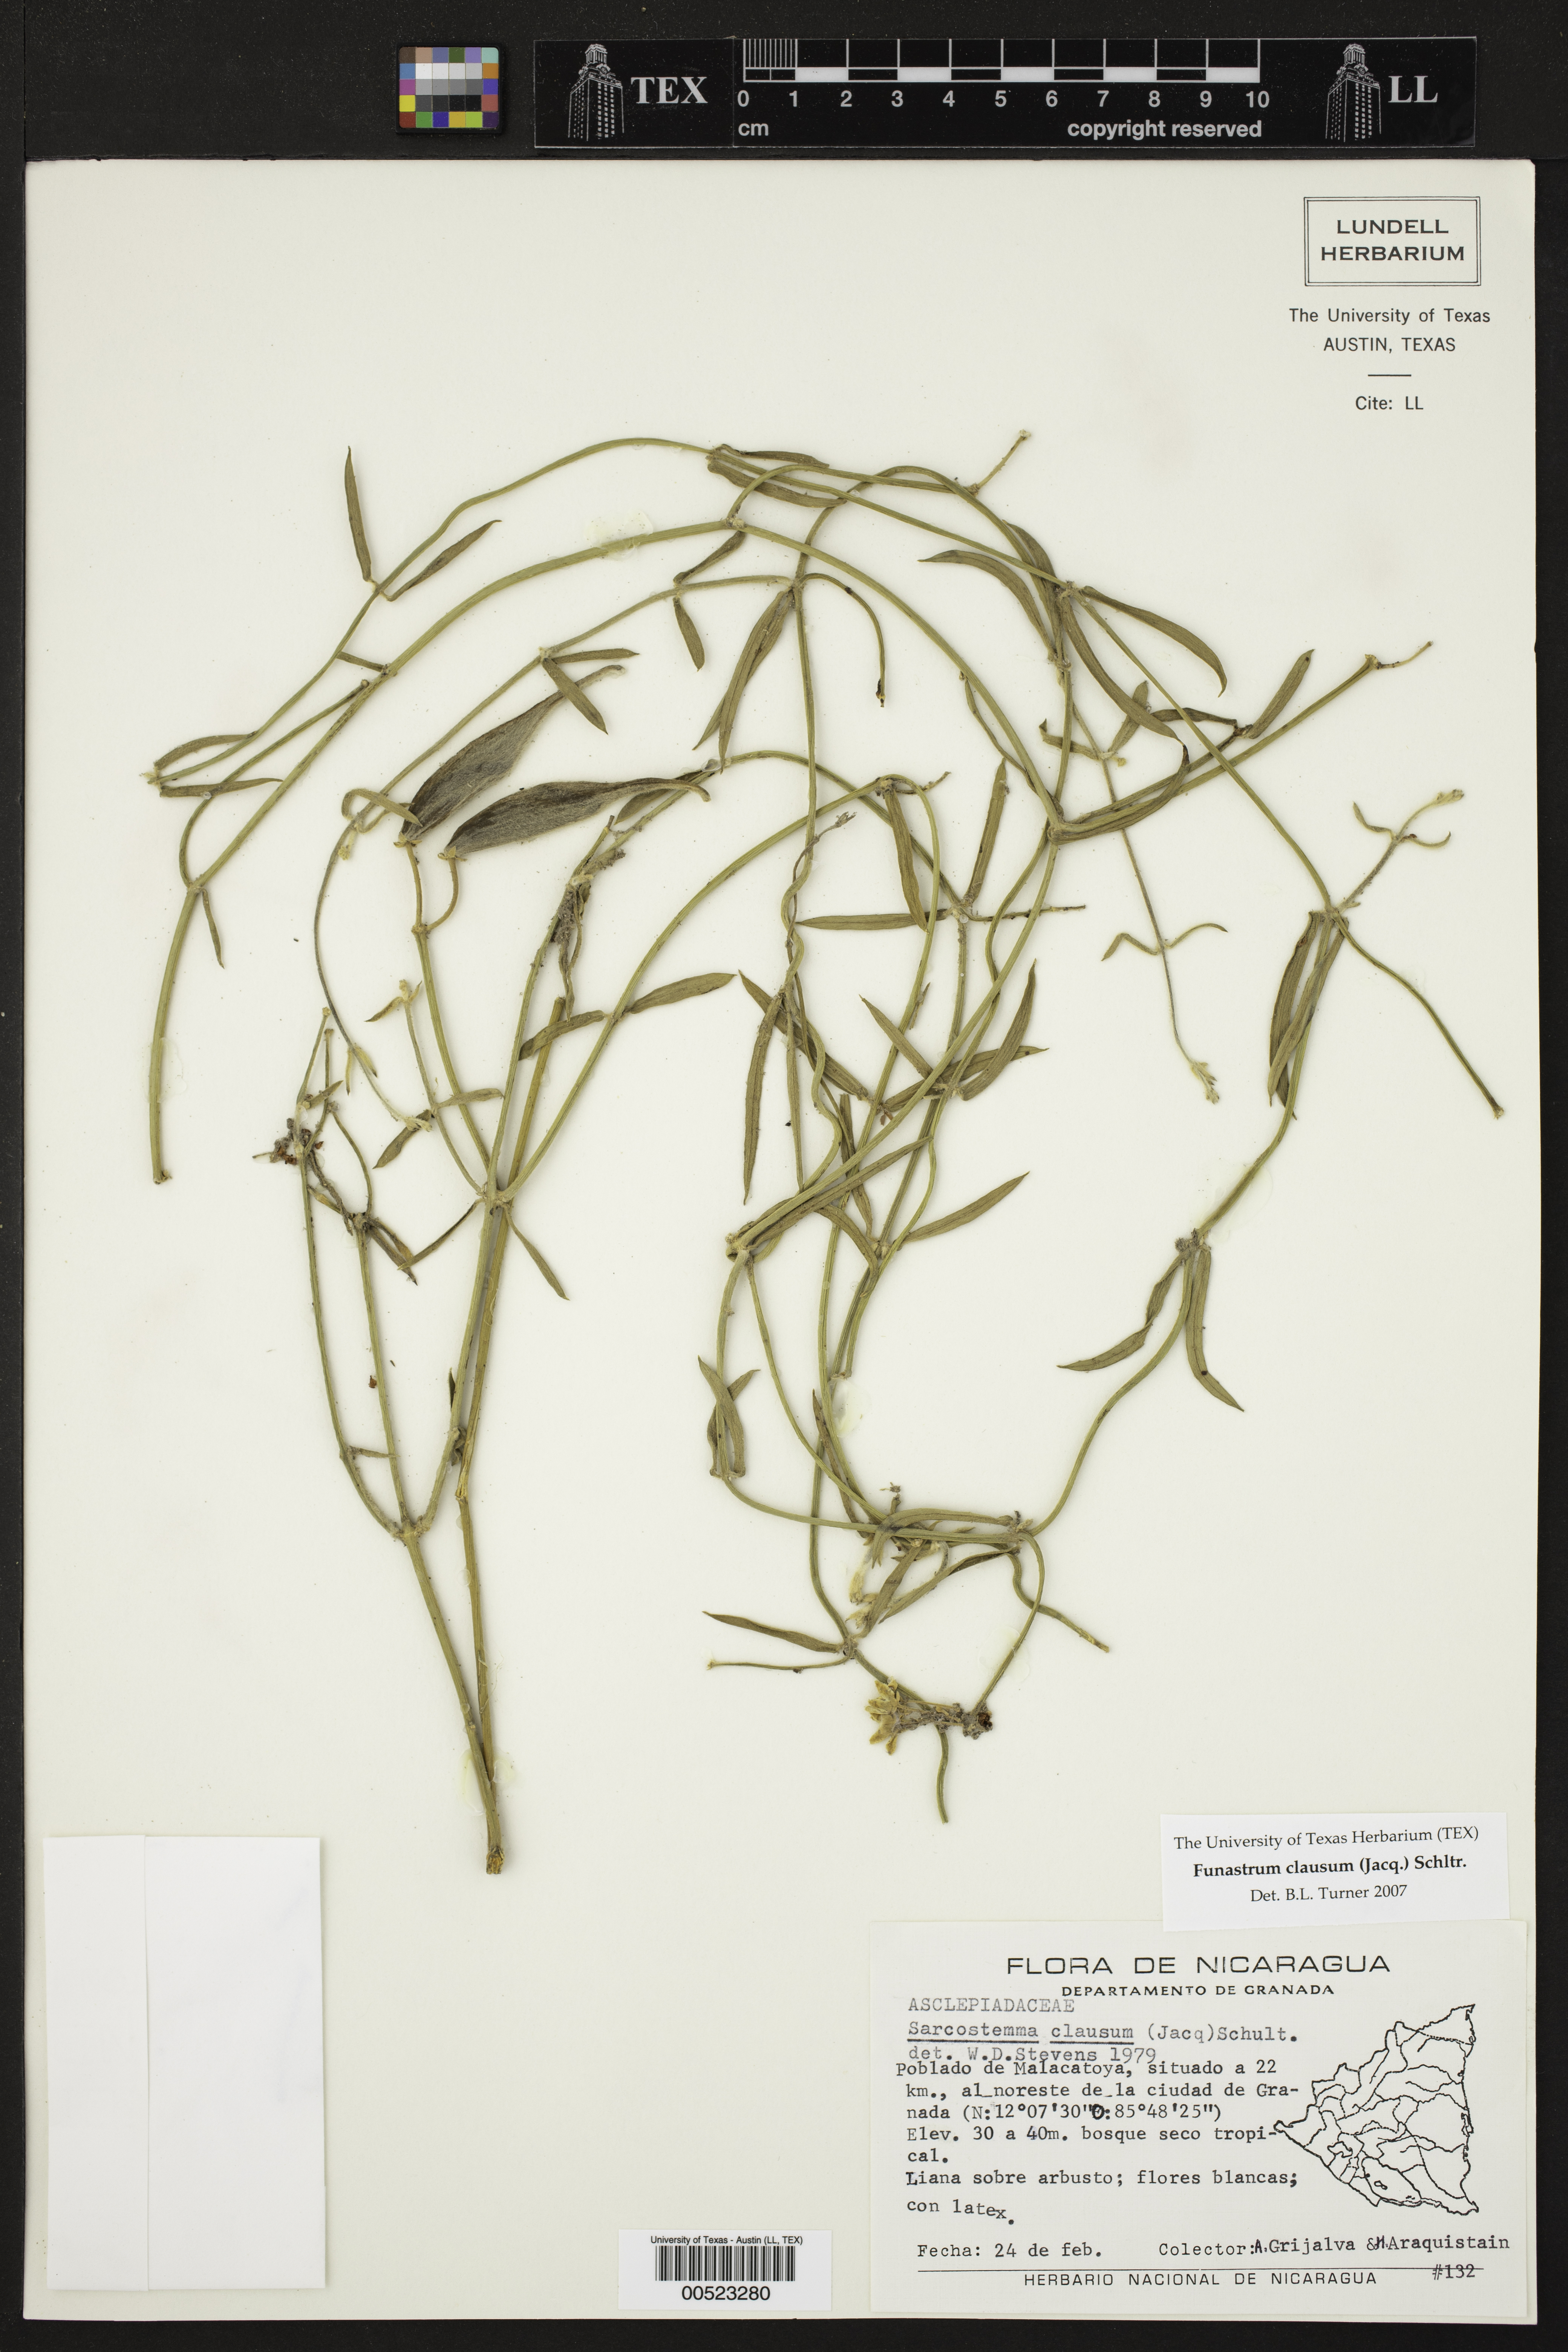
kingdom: Plantae
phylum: Tracheophyta
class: Magnoliopsida
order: Gentianales
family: Apocynaceae
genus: Funastrum
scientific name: Funastrum clausum
